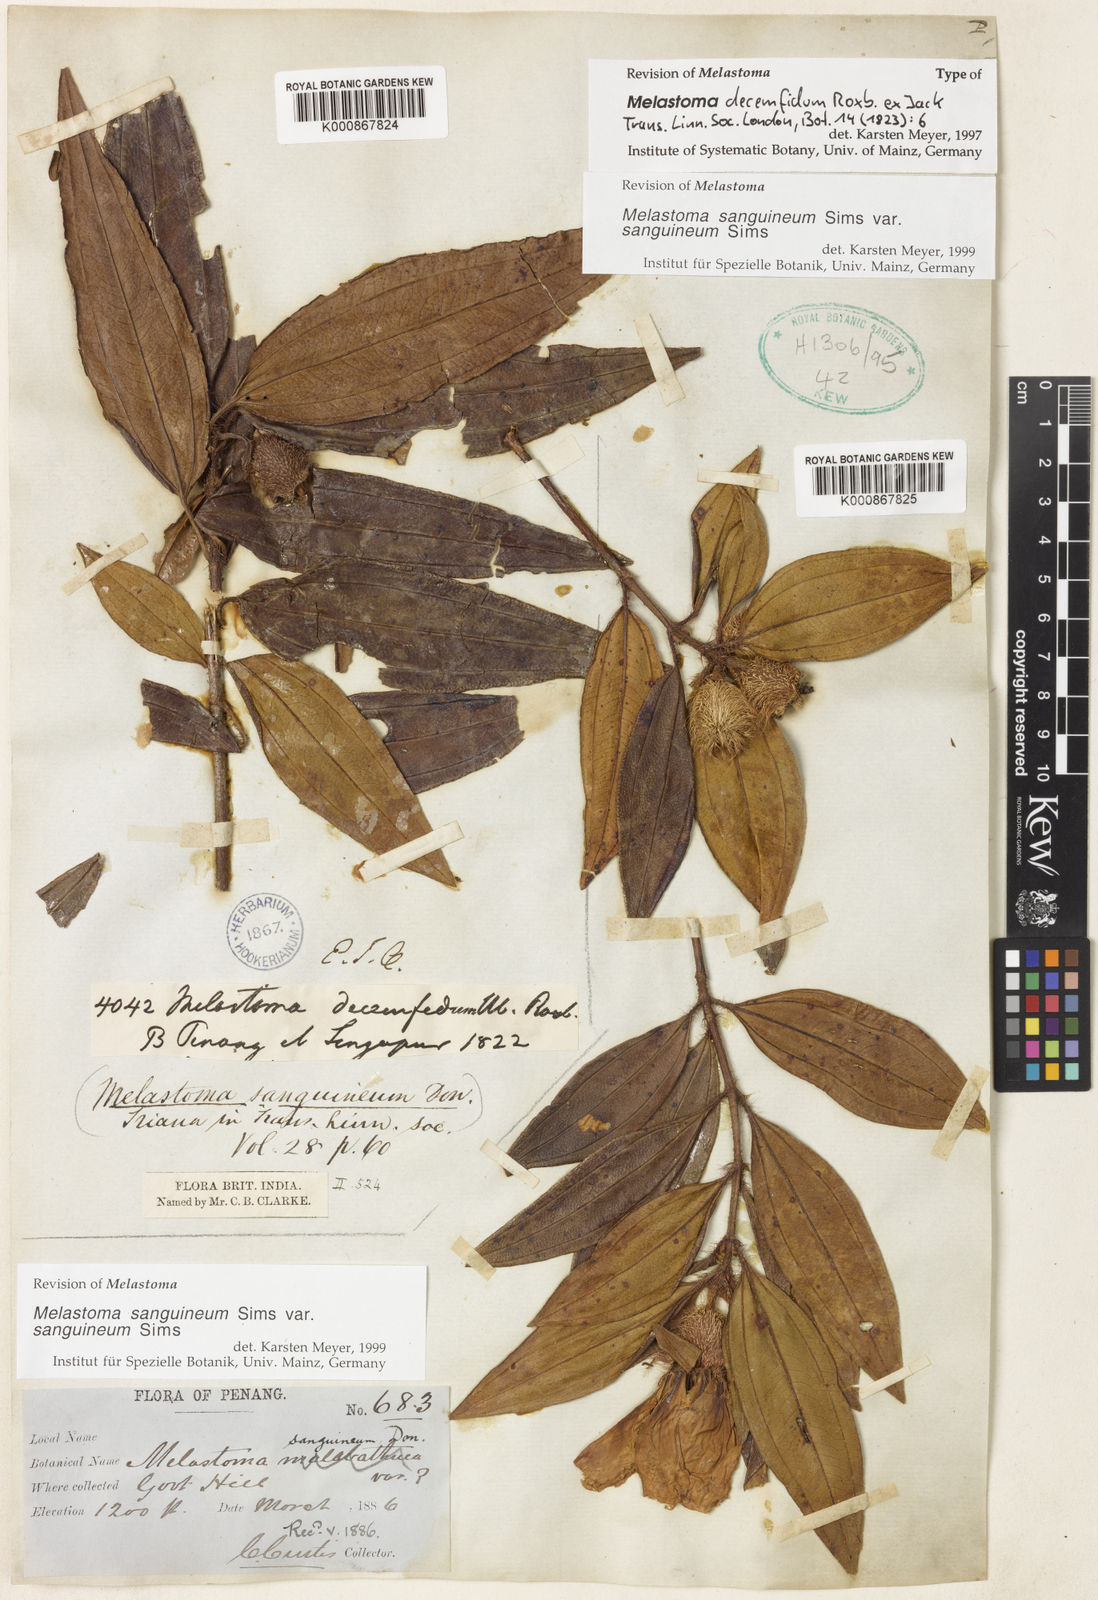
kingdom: Plantae
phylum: Tracheophyta
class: Magnoliopsida
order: Myrtales
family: Melastomataceae
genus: Melastoma
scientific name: Melastoma sanguineum
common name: Red melastome
